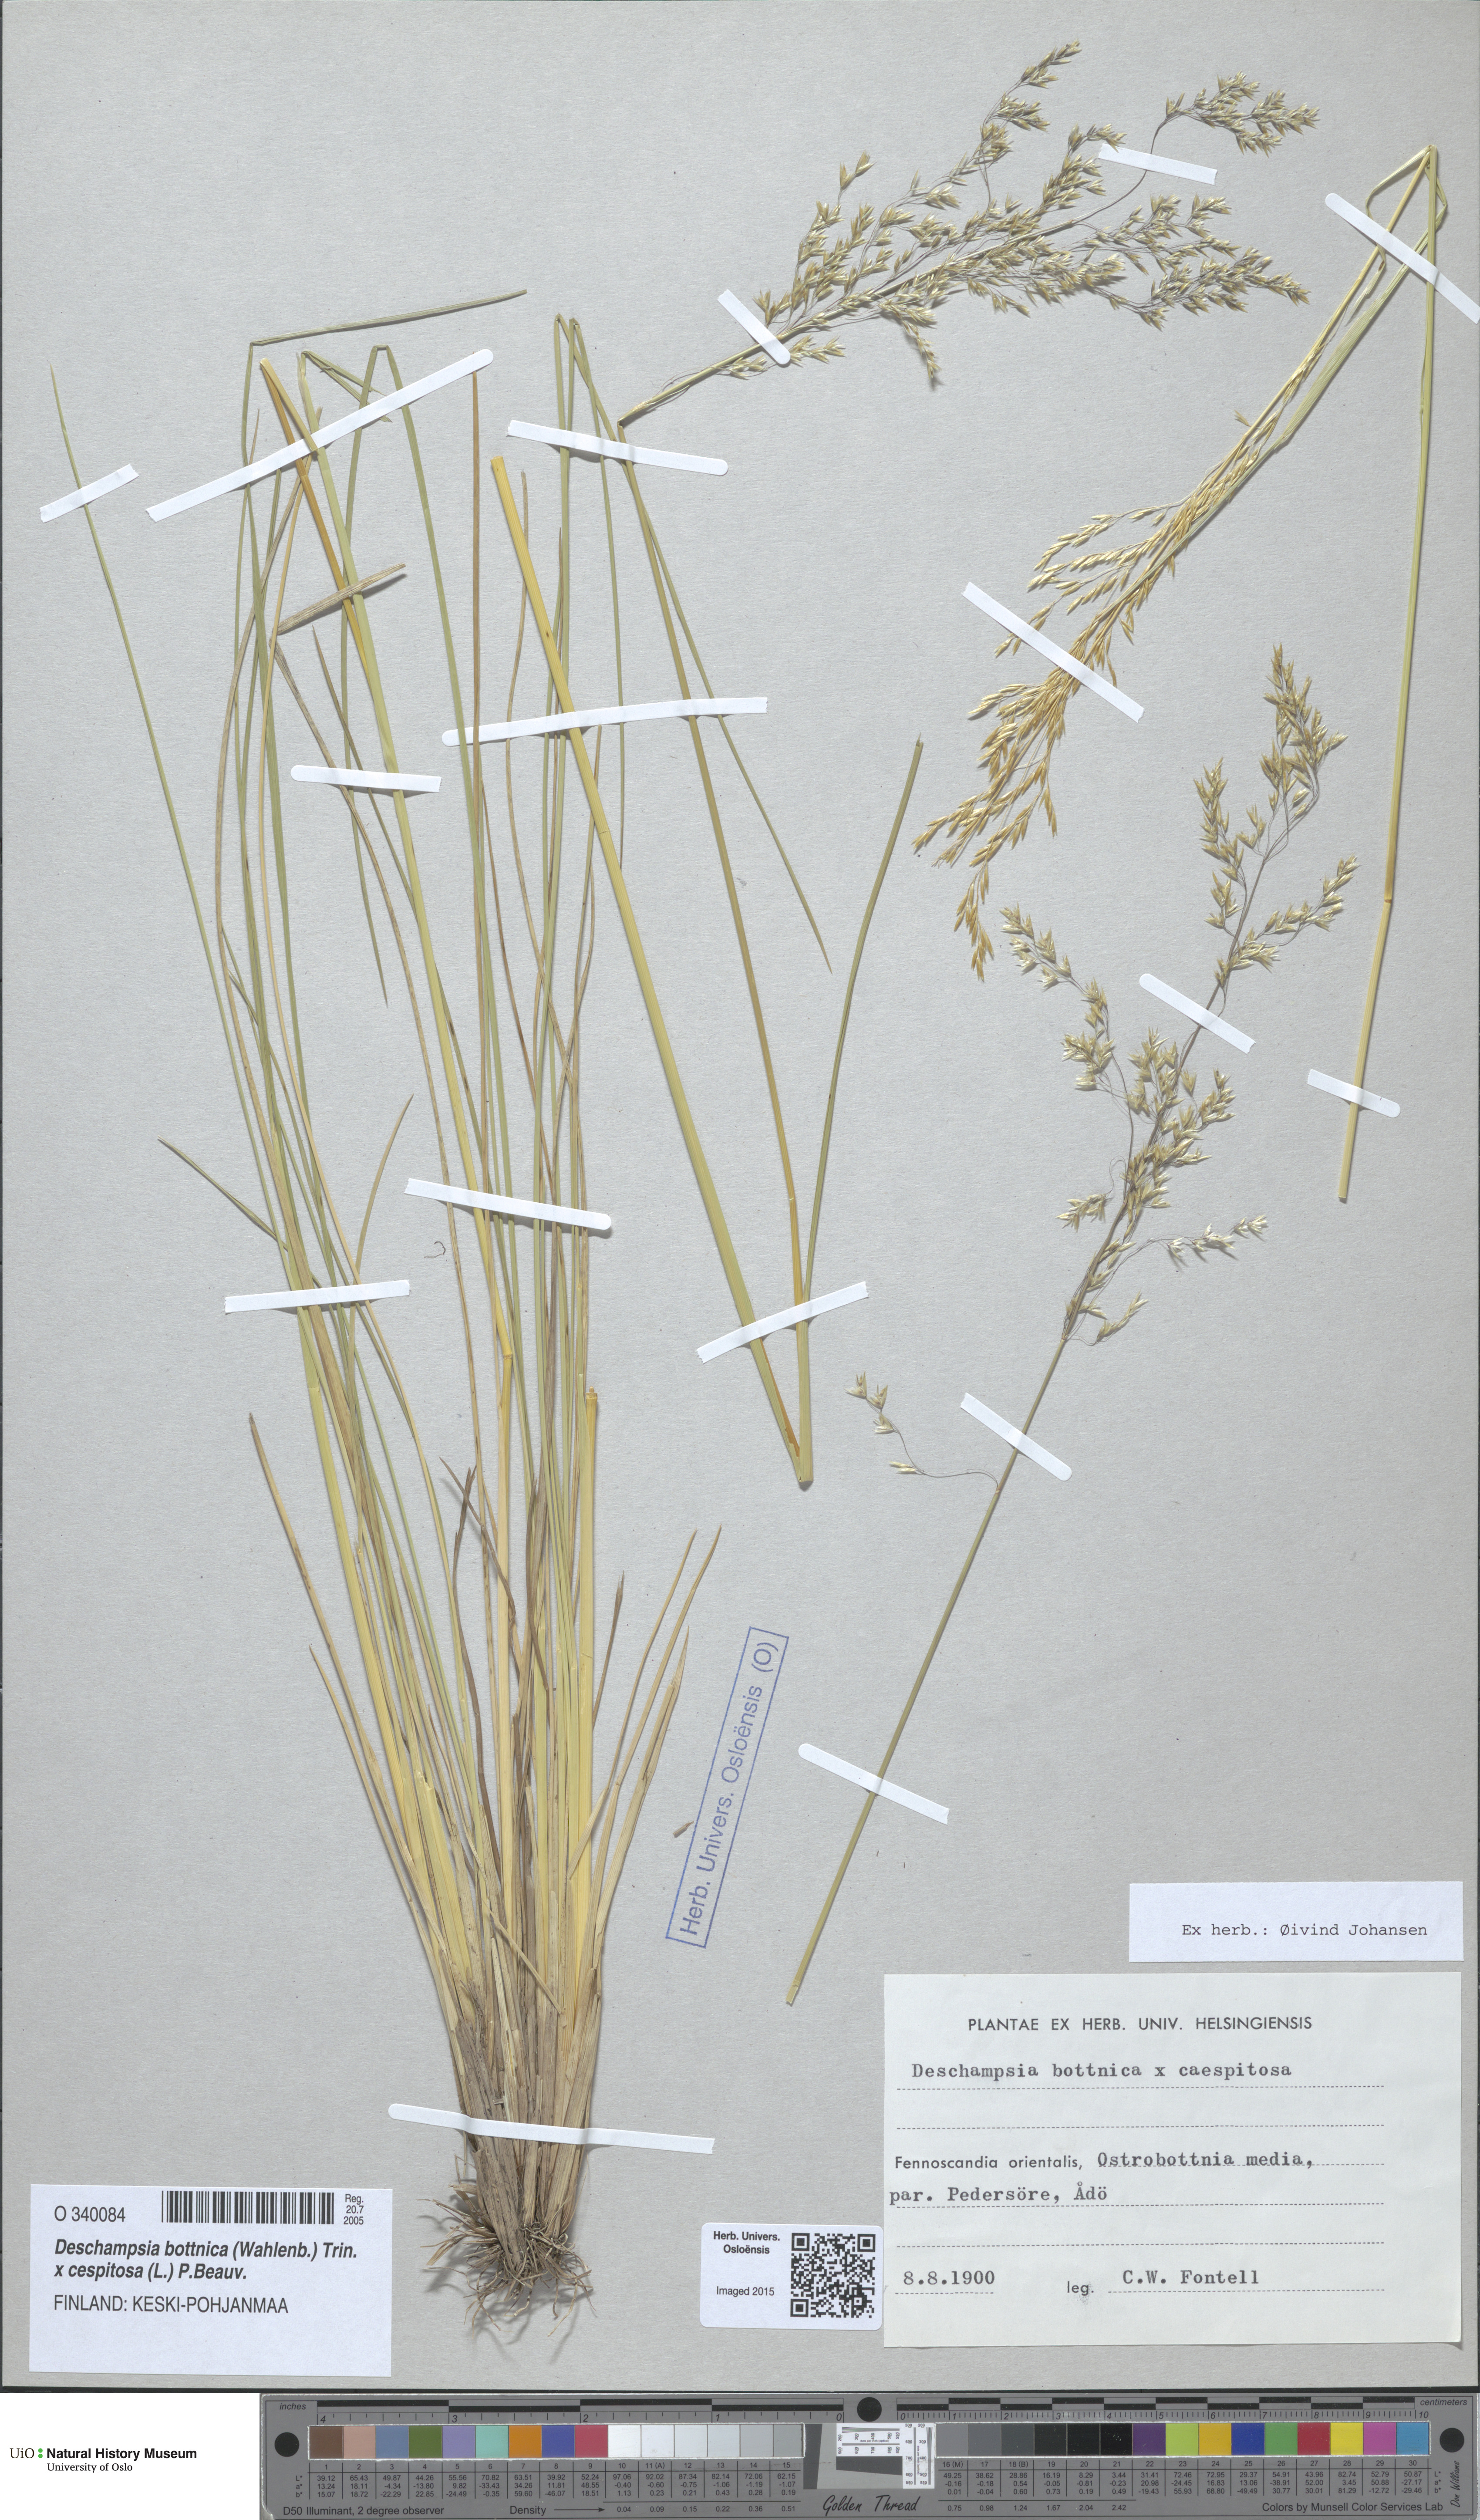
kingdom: Plantae
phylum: Tracheophyta
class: Liliopsida
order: Poales
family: Poaceae
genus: Deschampsia
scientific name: Deschampsia
